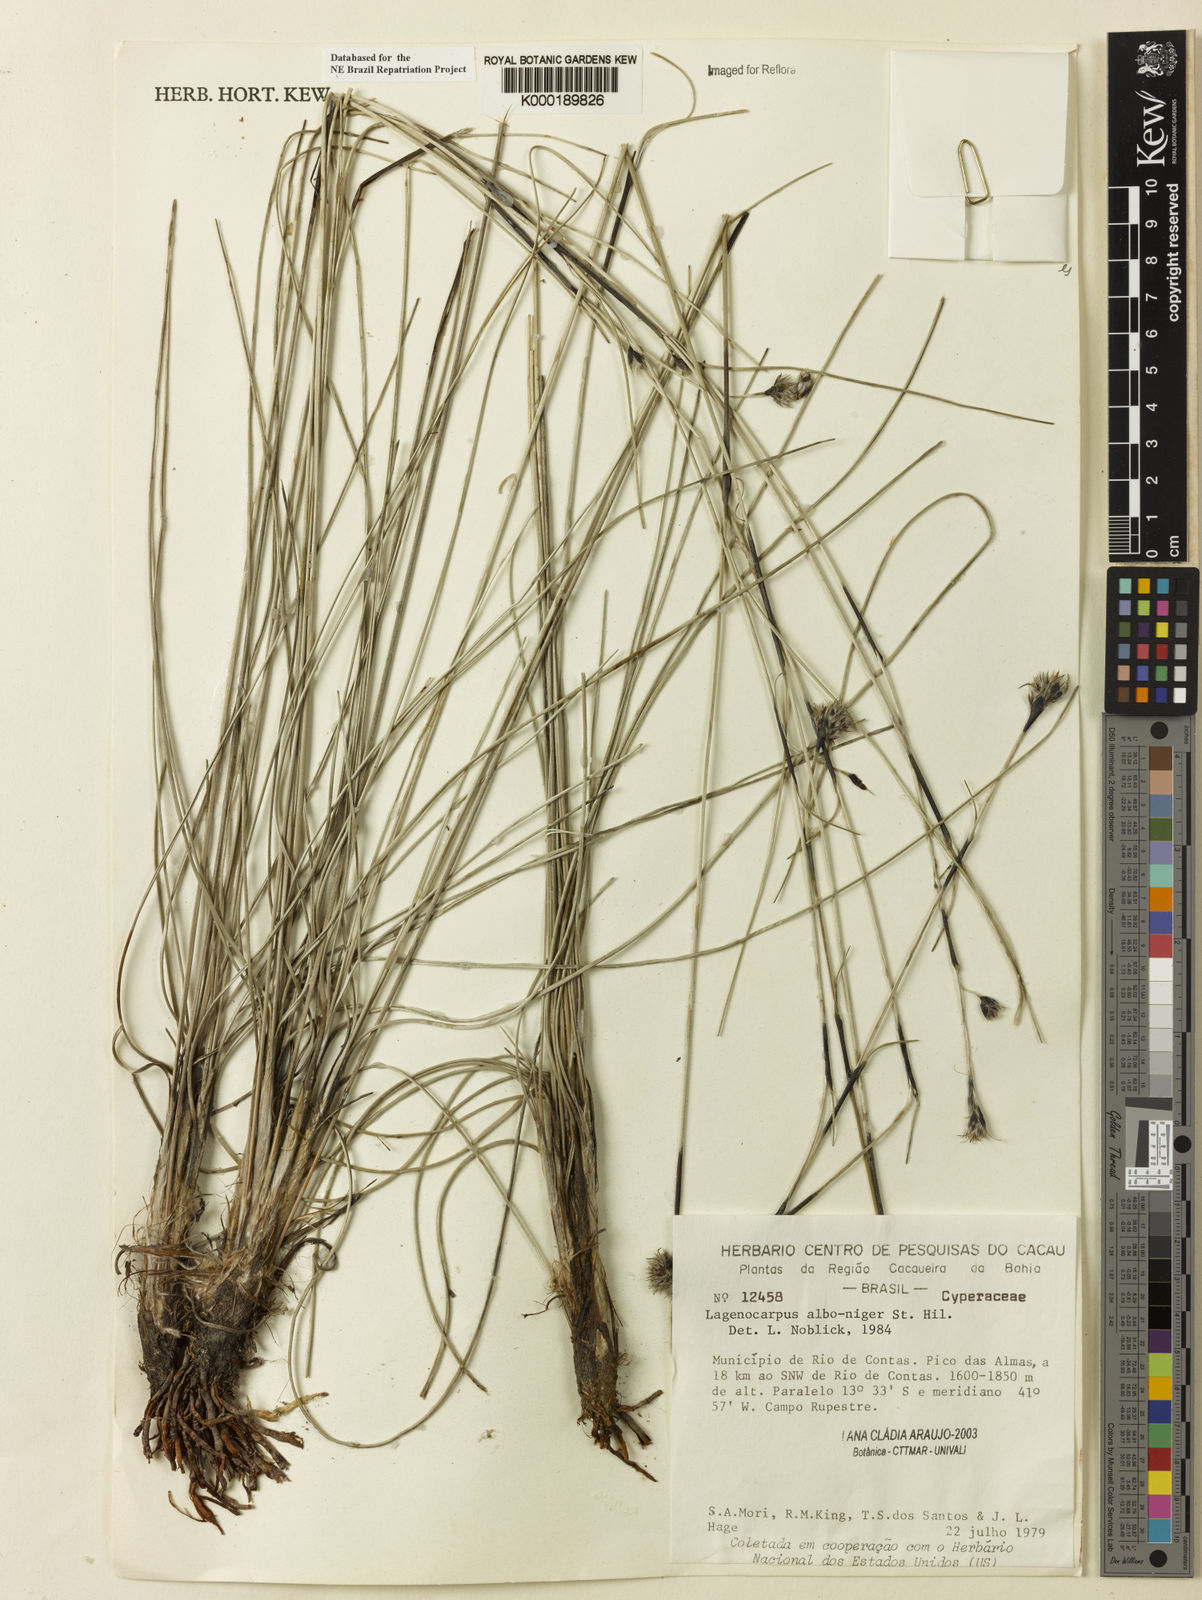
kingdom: Plantae
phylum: Tracheophyta
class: Liliopsida
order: Poales
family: Cyperaceae
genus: Lagenocarpus
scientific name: Lagenocarpus alboniger
